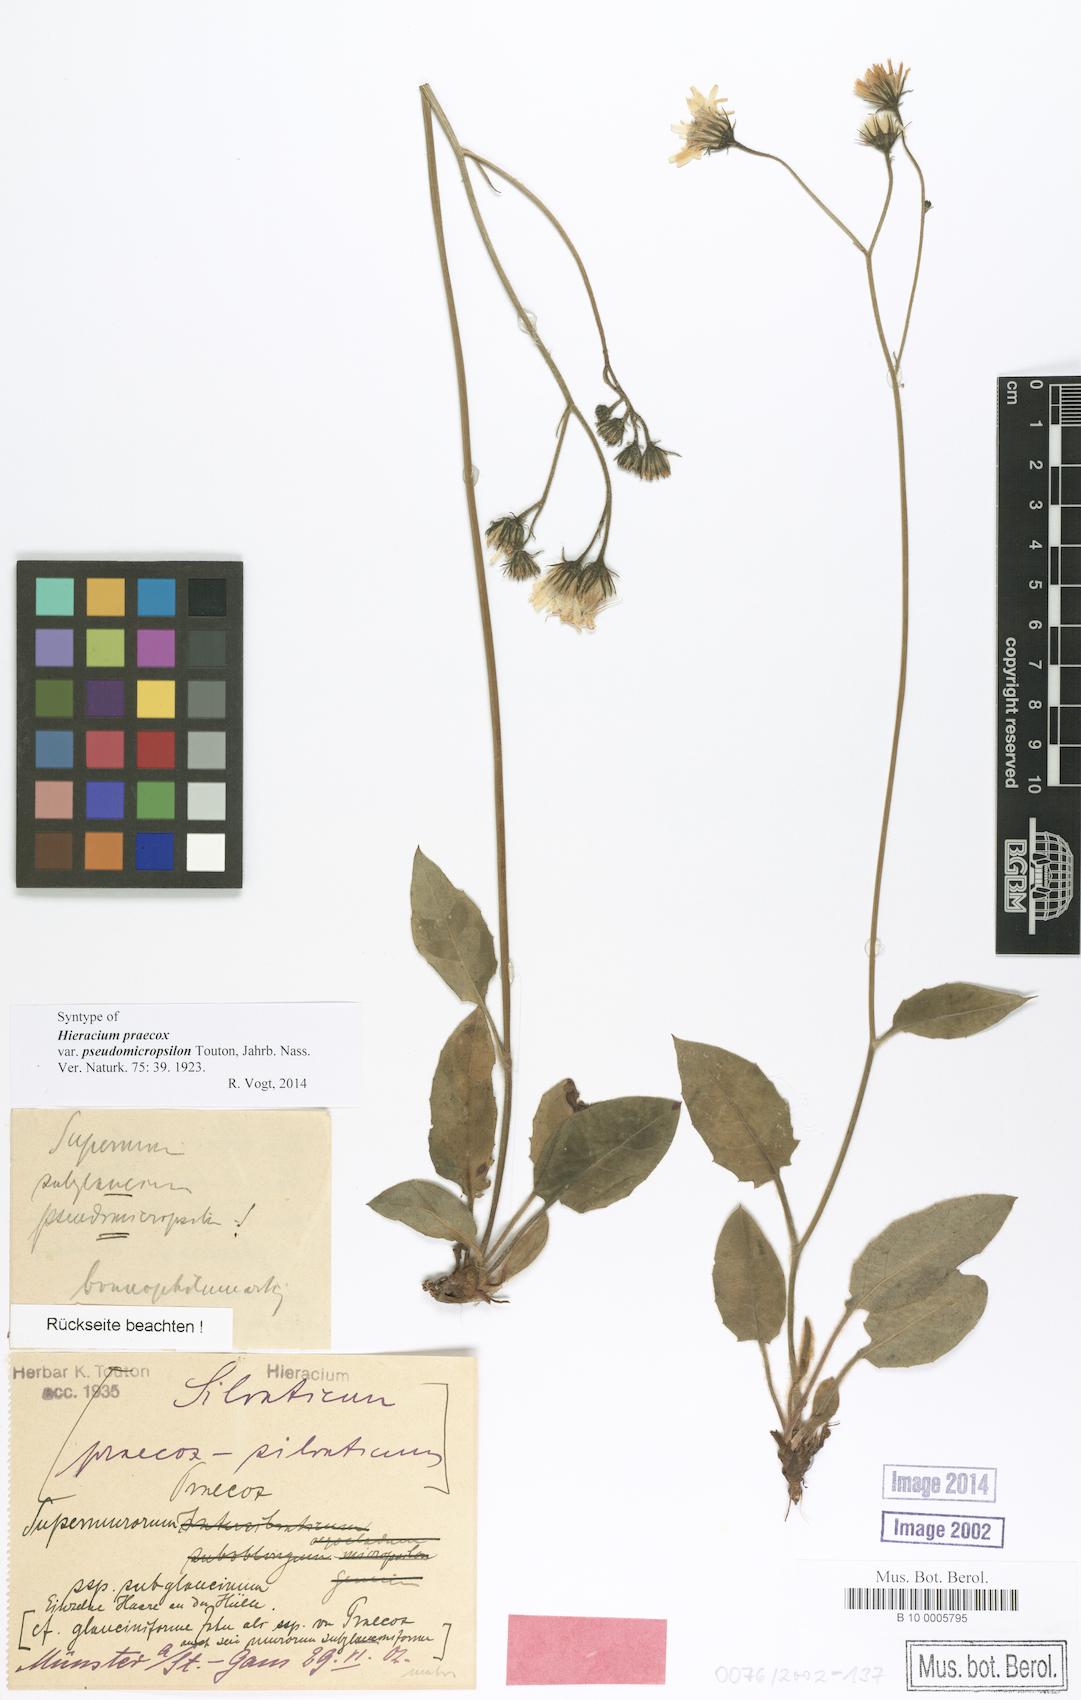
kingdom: Plantae
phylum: Tracheophyta
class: Magnoliopsida
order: Asterales
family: Asteraceae
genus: Hieracium
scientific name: Hieracium praecox
